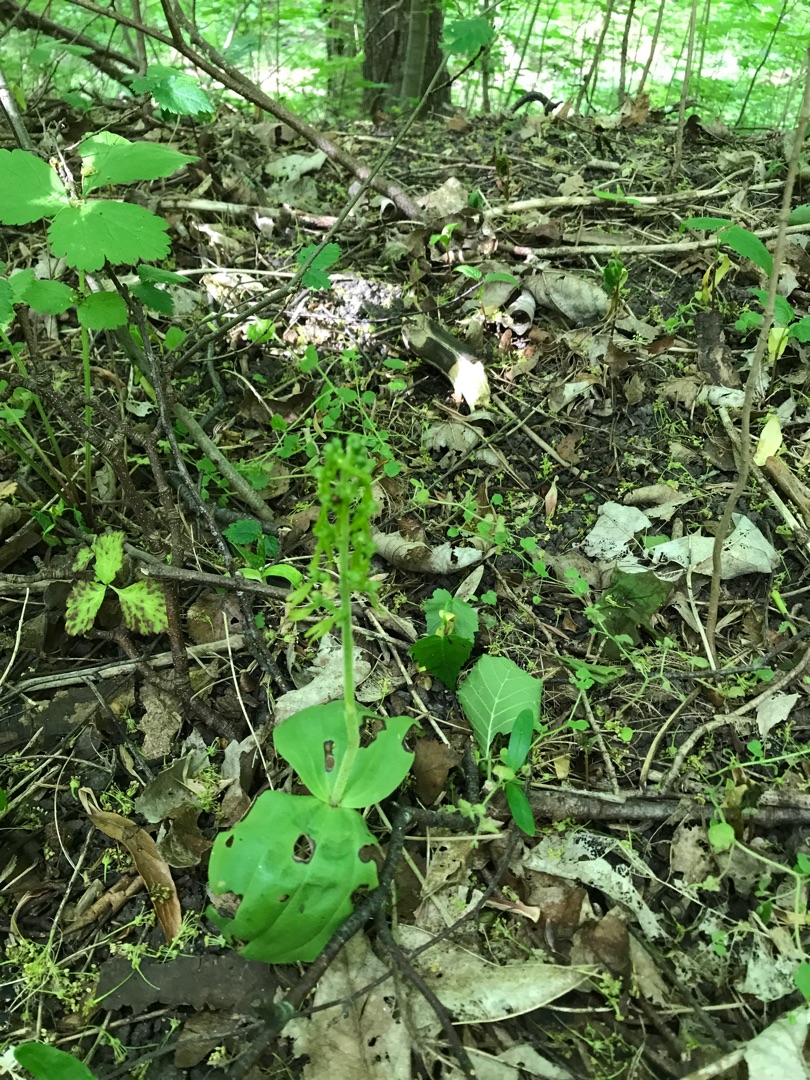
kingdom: Plantae
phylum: Tracheophyta
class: Liliopsida
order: Asparagales
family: Orchidaceae
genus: Neottia
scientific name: Neottia ovata
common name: Ægbladet fliglæbe
